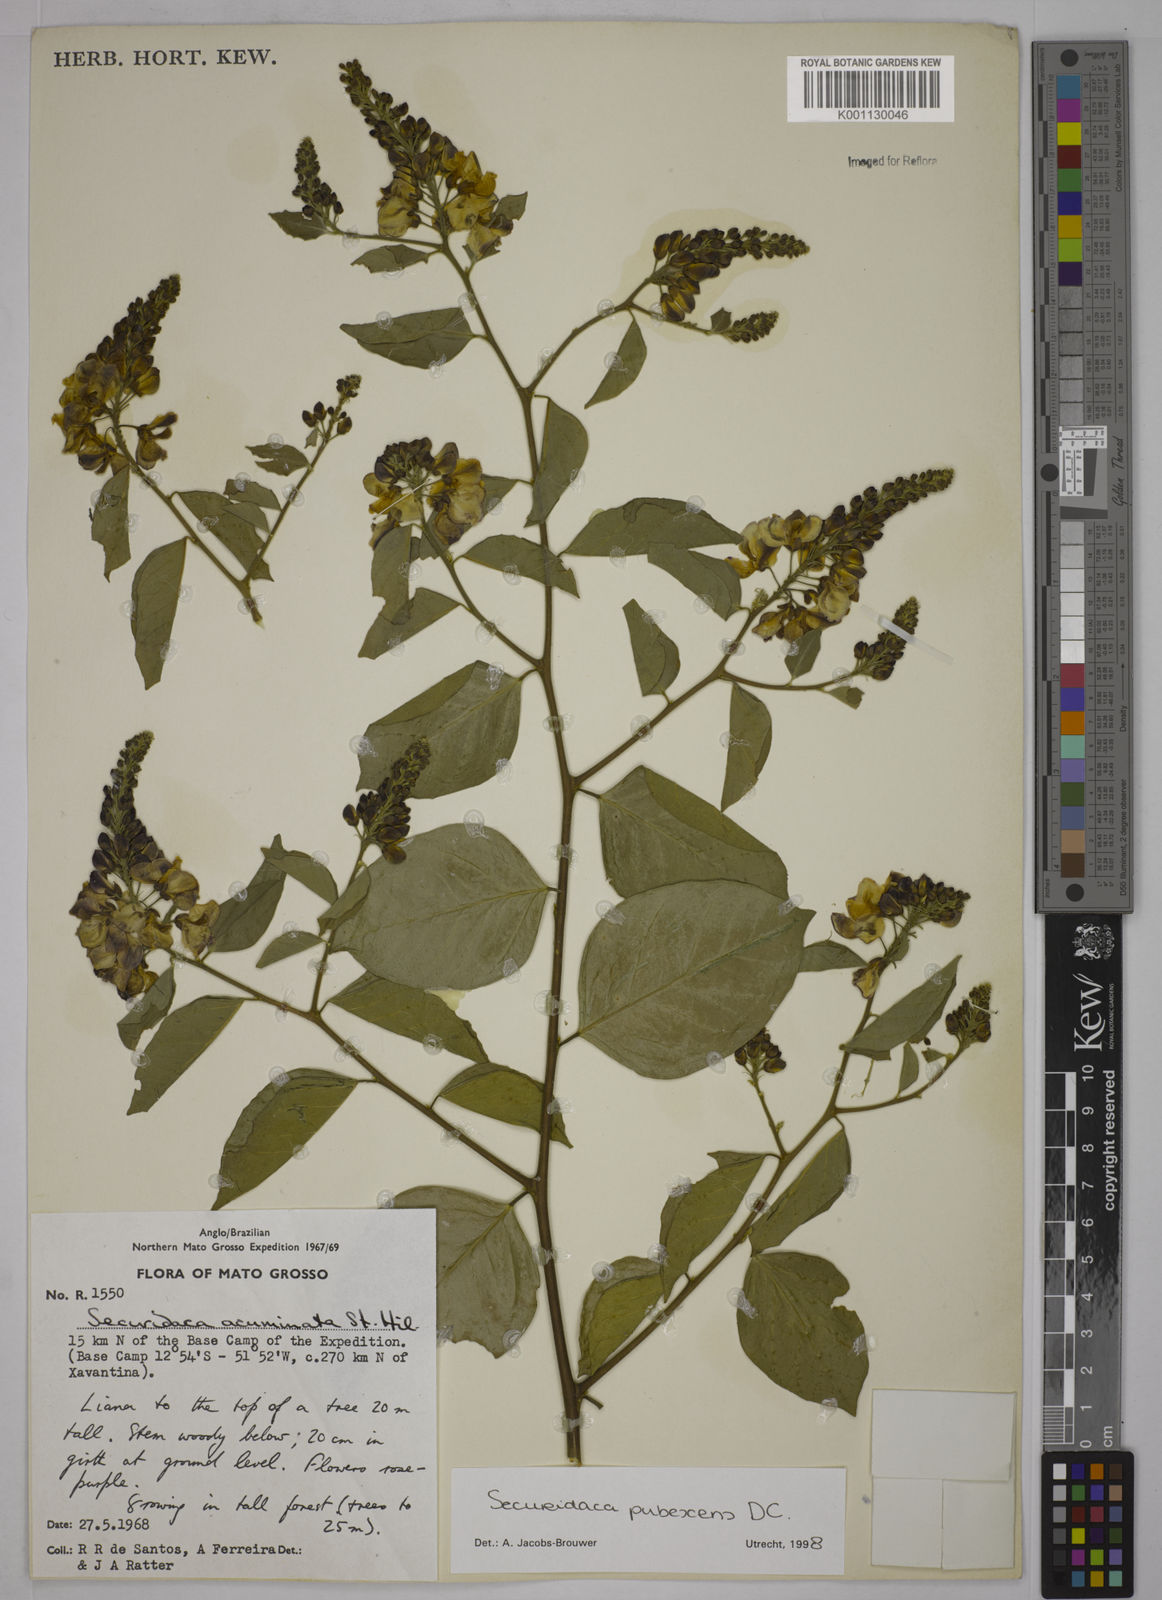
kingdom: Plantae
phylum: Tracheophyta
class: Magnoliopsida
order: Fabales
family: Polygalaceae
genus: Securidaca
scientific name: Securidaca pubescens
